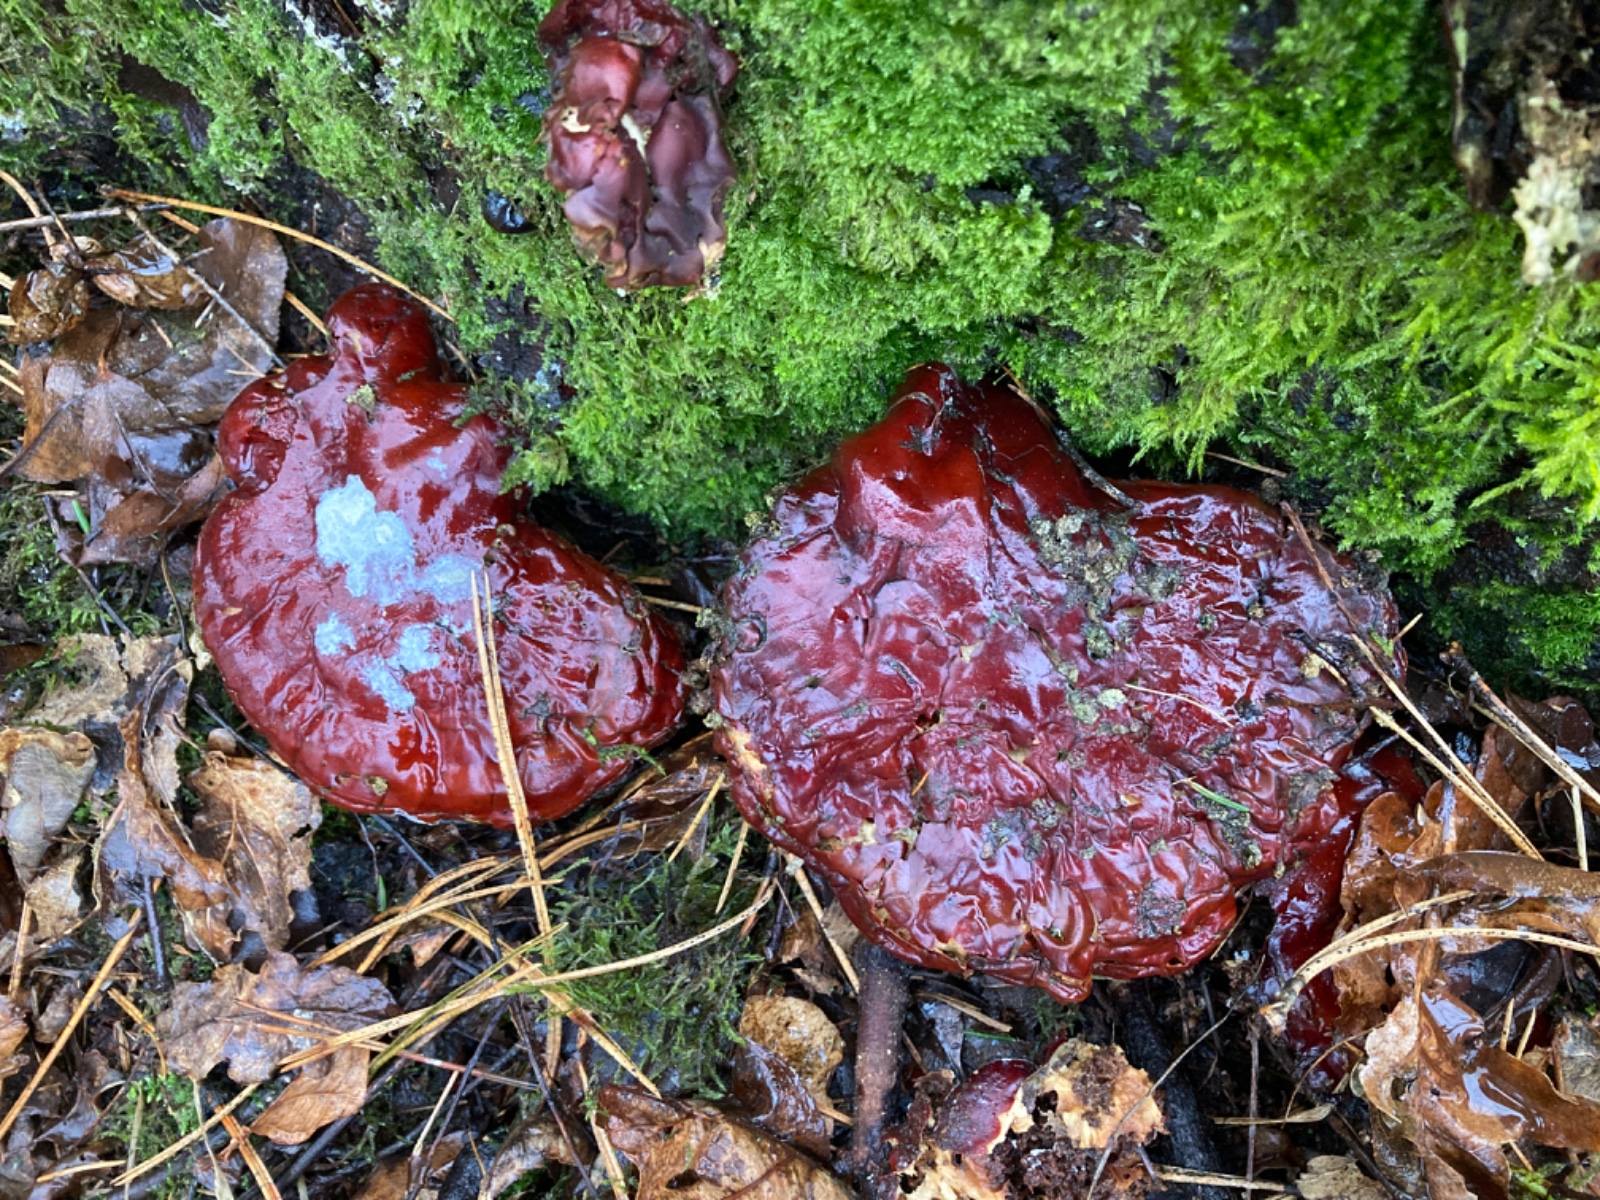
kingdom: Fungi
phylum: Basidiomycota
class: Agaricomycetes
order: Polyporales
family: Polyporaceae
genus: Ganoderma
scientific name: Ganoderma lucidum
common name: skinnende lakporesvamp
